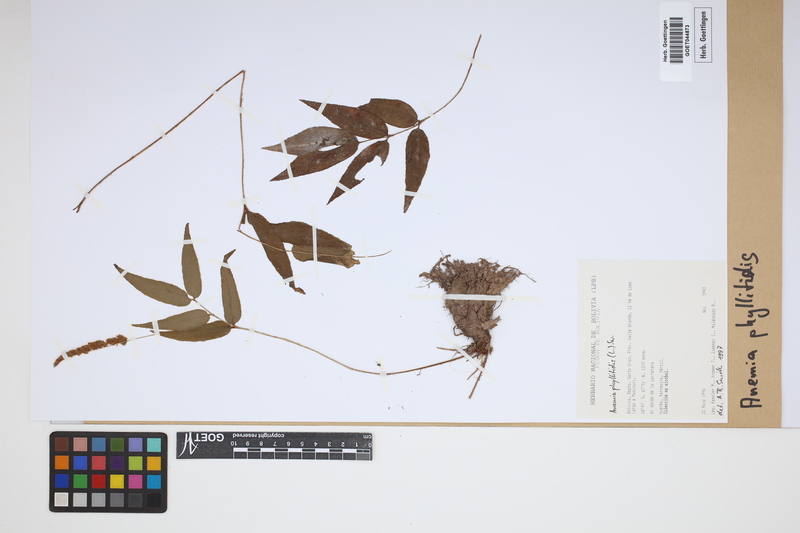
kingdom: Plantae
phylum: Tracheophyta
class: Polypodiopsida
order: Schizaeales
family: Anemiaceae
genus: Anemia
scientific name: Anemia phyllitidis
